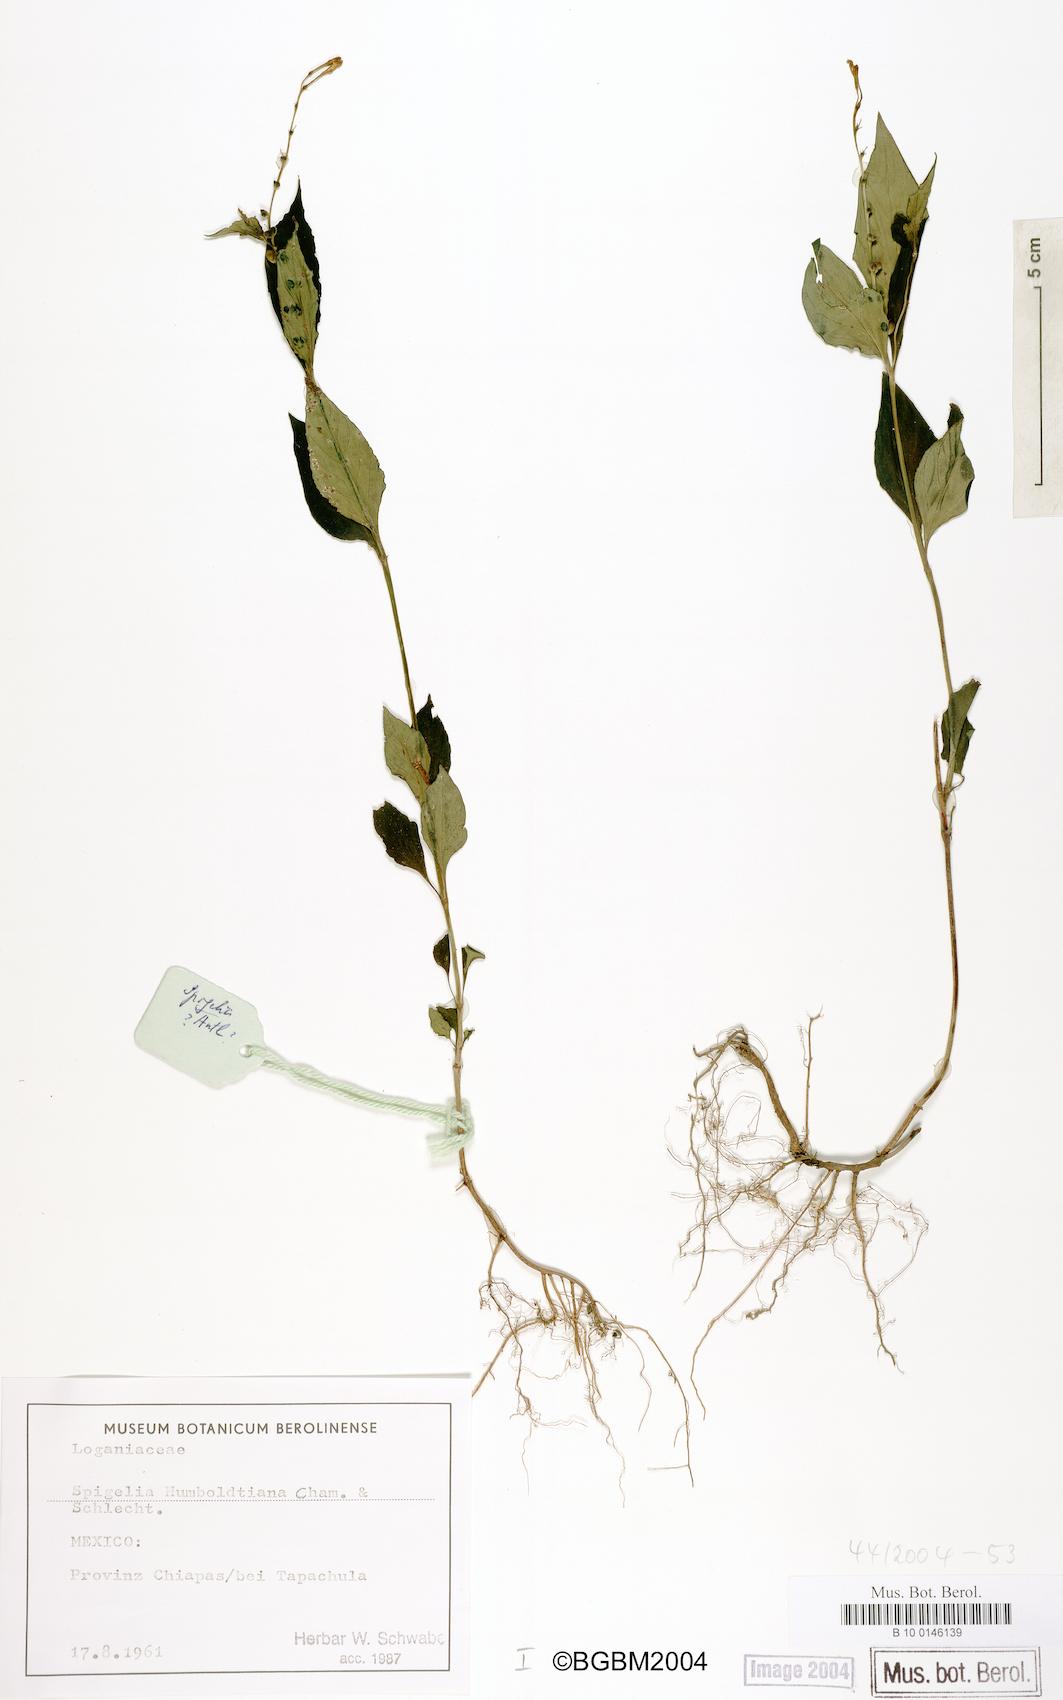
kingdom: Plantae
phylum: Tracheophyta
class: Magnoliopsida
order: Gentianales
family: Loganiaceae
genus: Spigelia
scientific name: Spigelia humboldtiana
